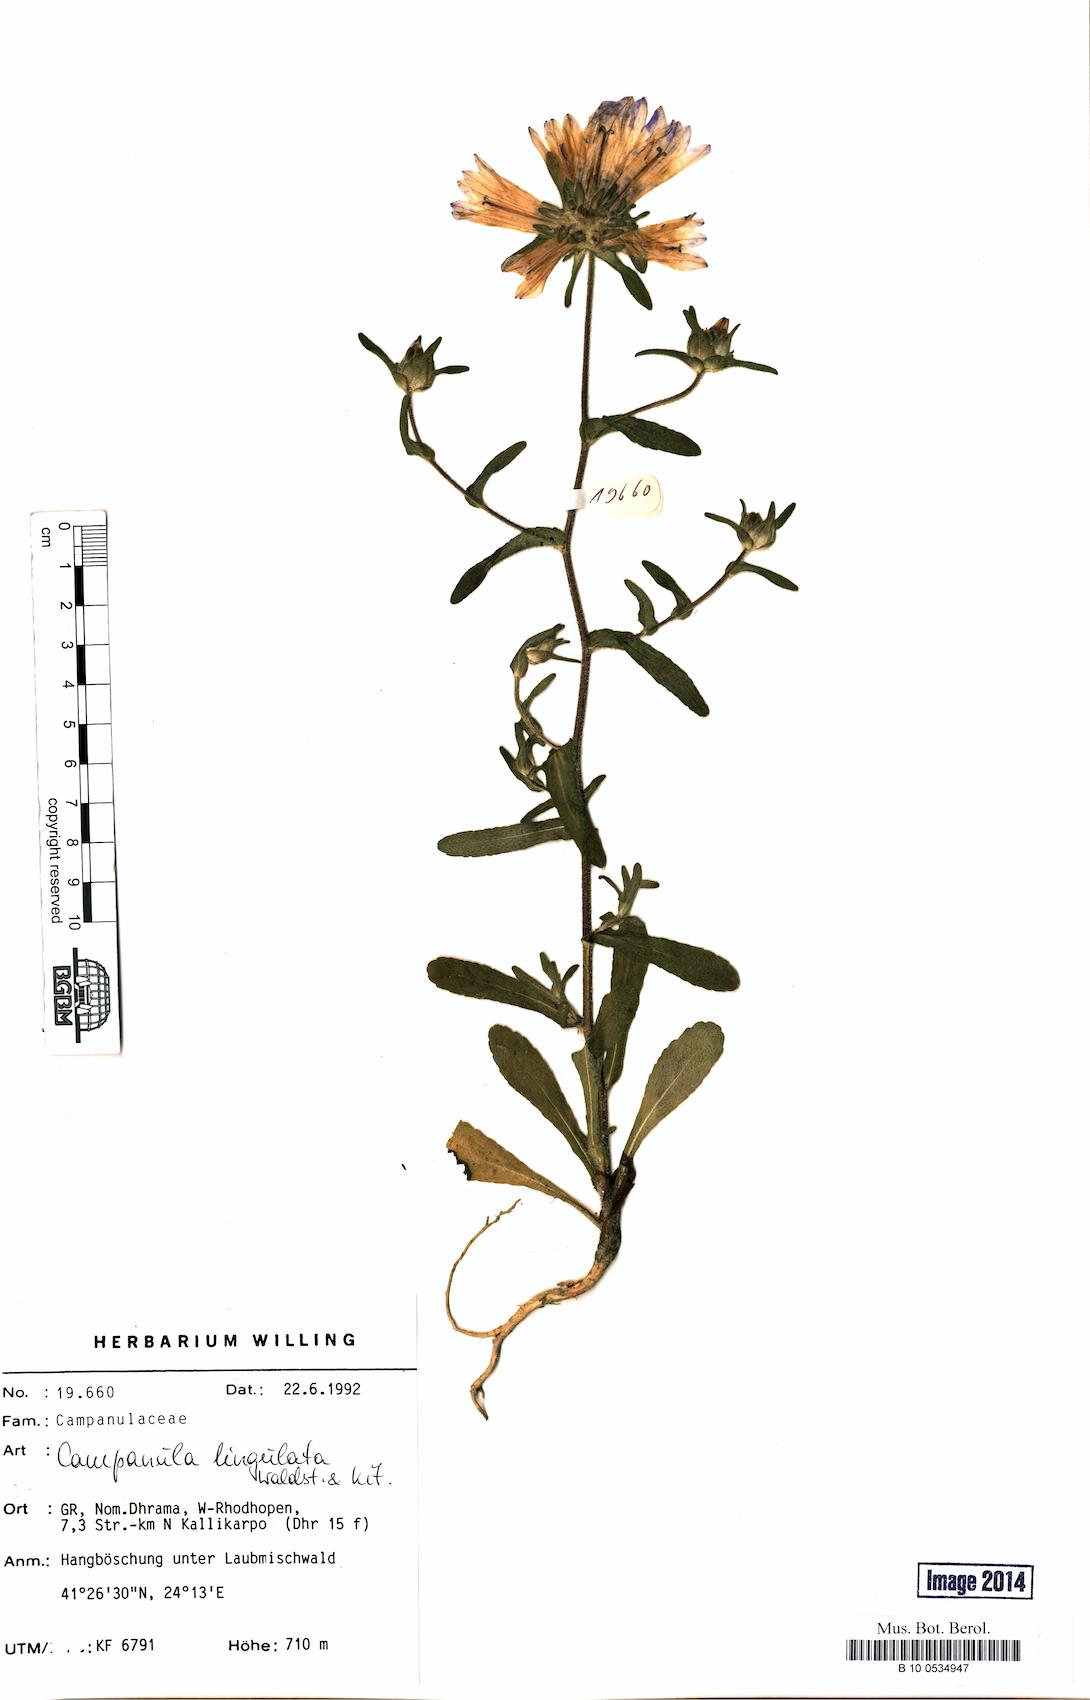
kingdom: Plantae
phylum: Tracheophyta
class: Magnoliopsida
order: Asterales
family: Campanulaceae
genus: Campanula
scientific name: Campanula lingulata
